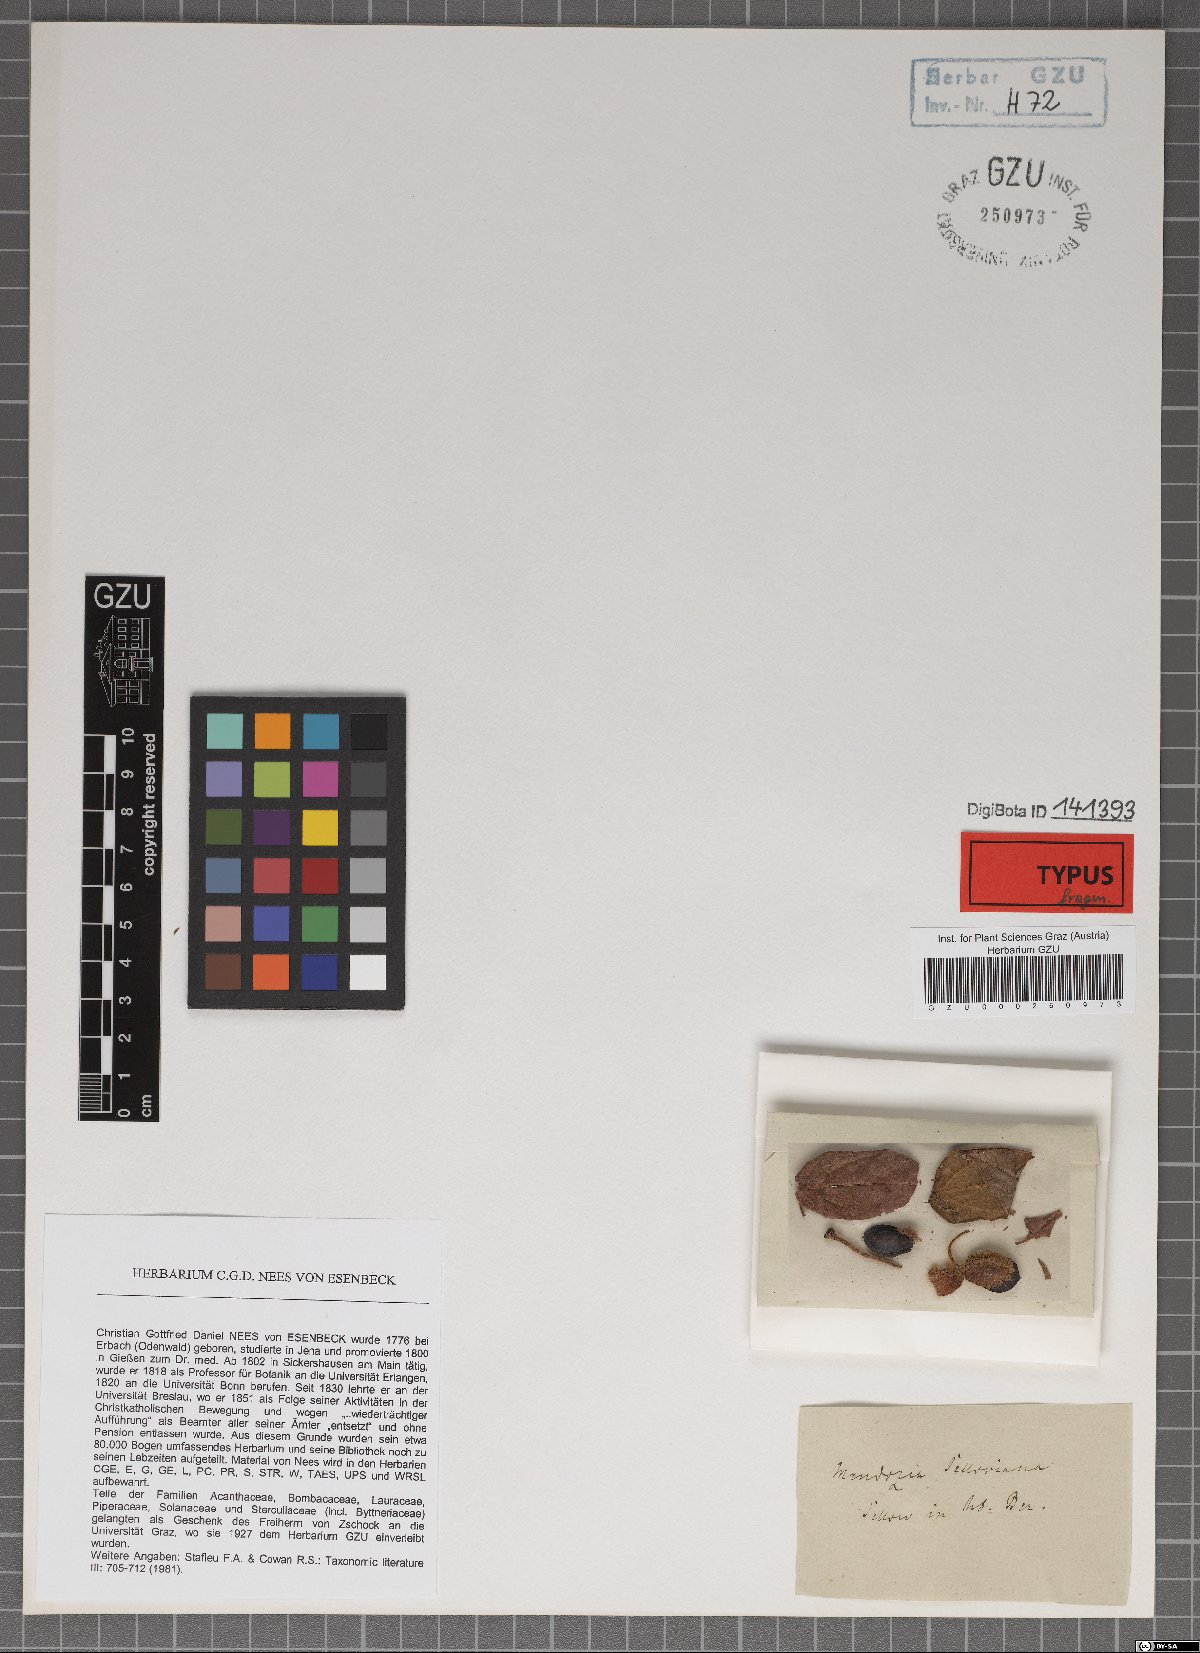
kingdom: Plantae
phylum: Tracheophyta
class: Magnoliopsida
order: Lamiales
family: Acanthaceae
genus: Mendoncia
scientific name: Mendoncia puberula
